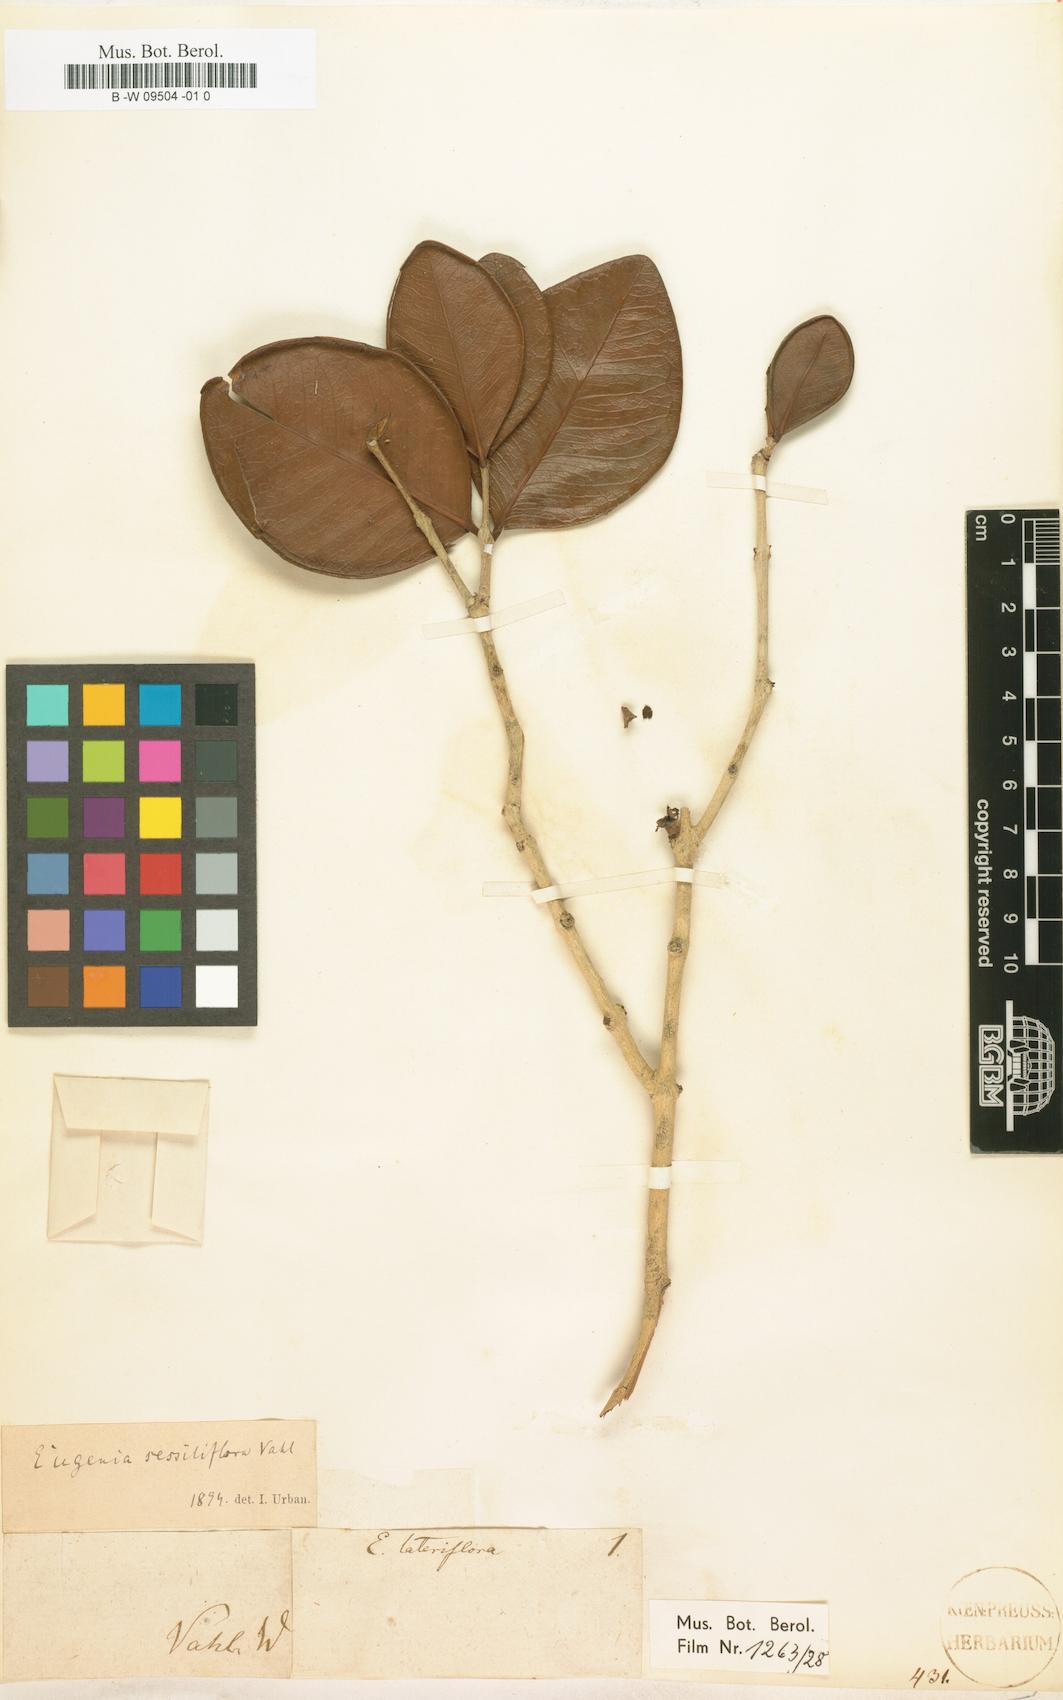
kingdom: Plantae
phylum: Tracheophyta
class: Magnoliopsida
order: Myrtales
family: Myrtaceae
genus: Eugenia
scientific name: Eugenia sessiliflora
